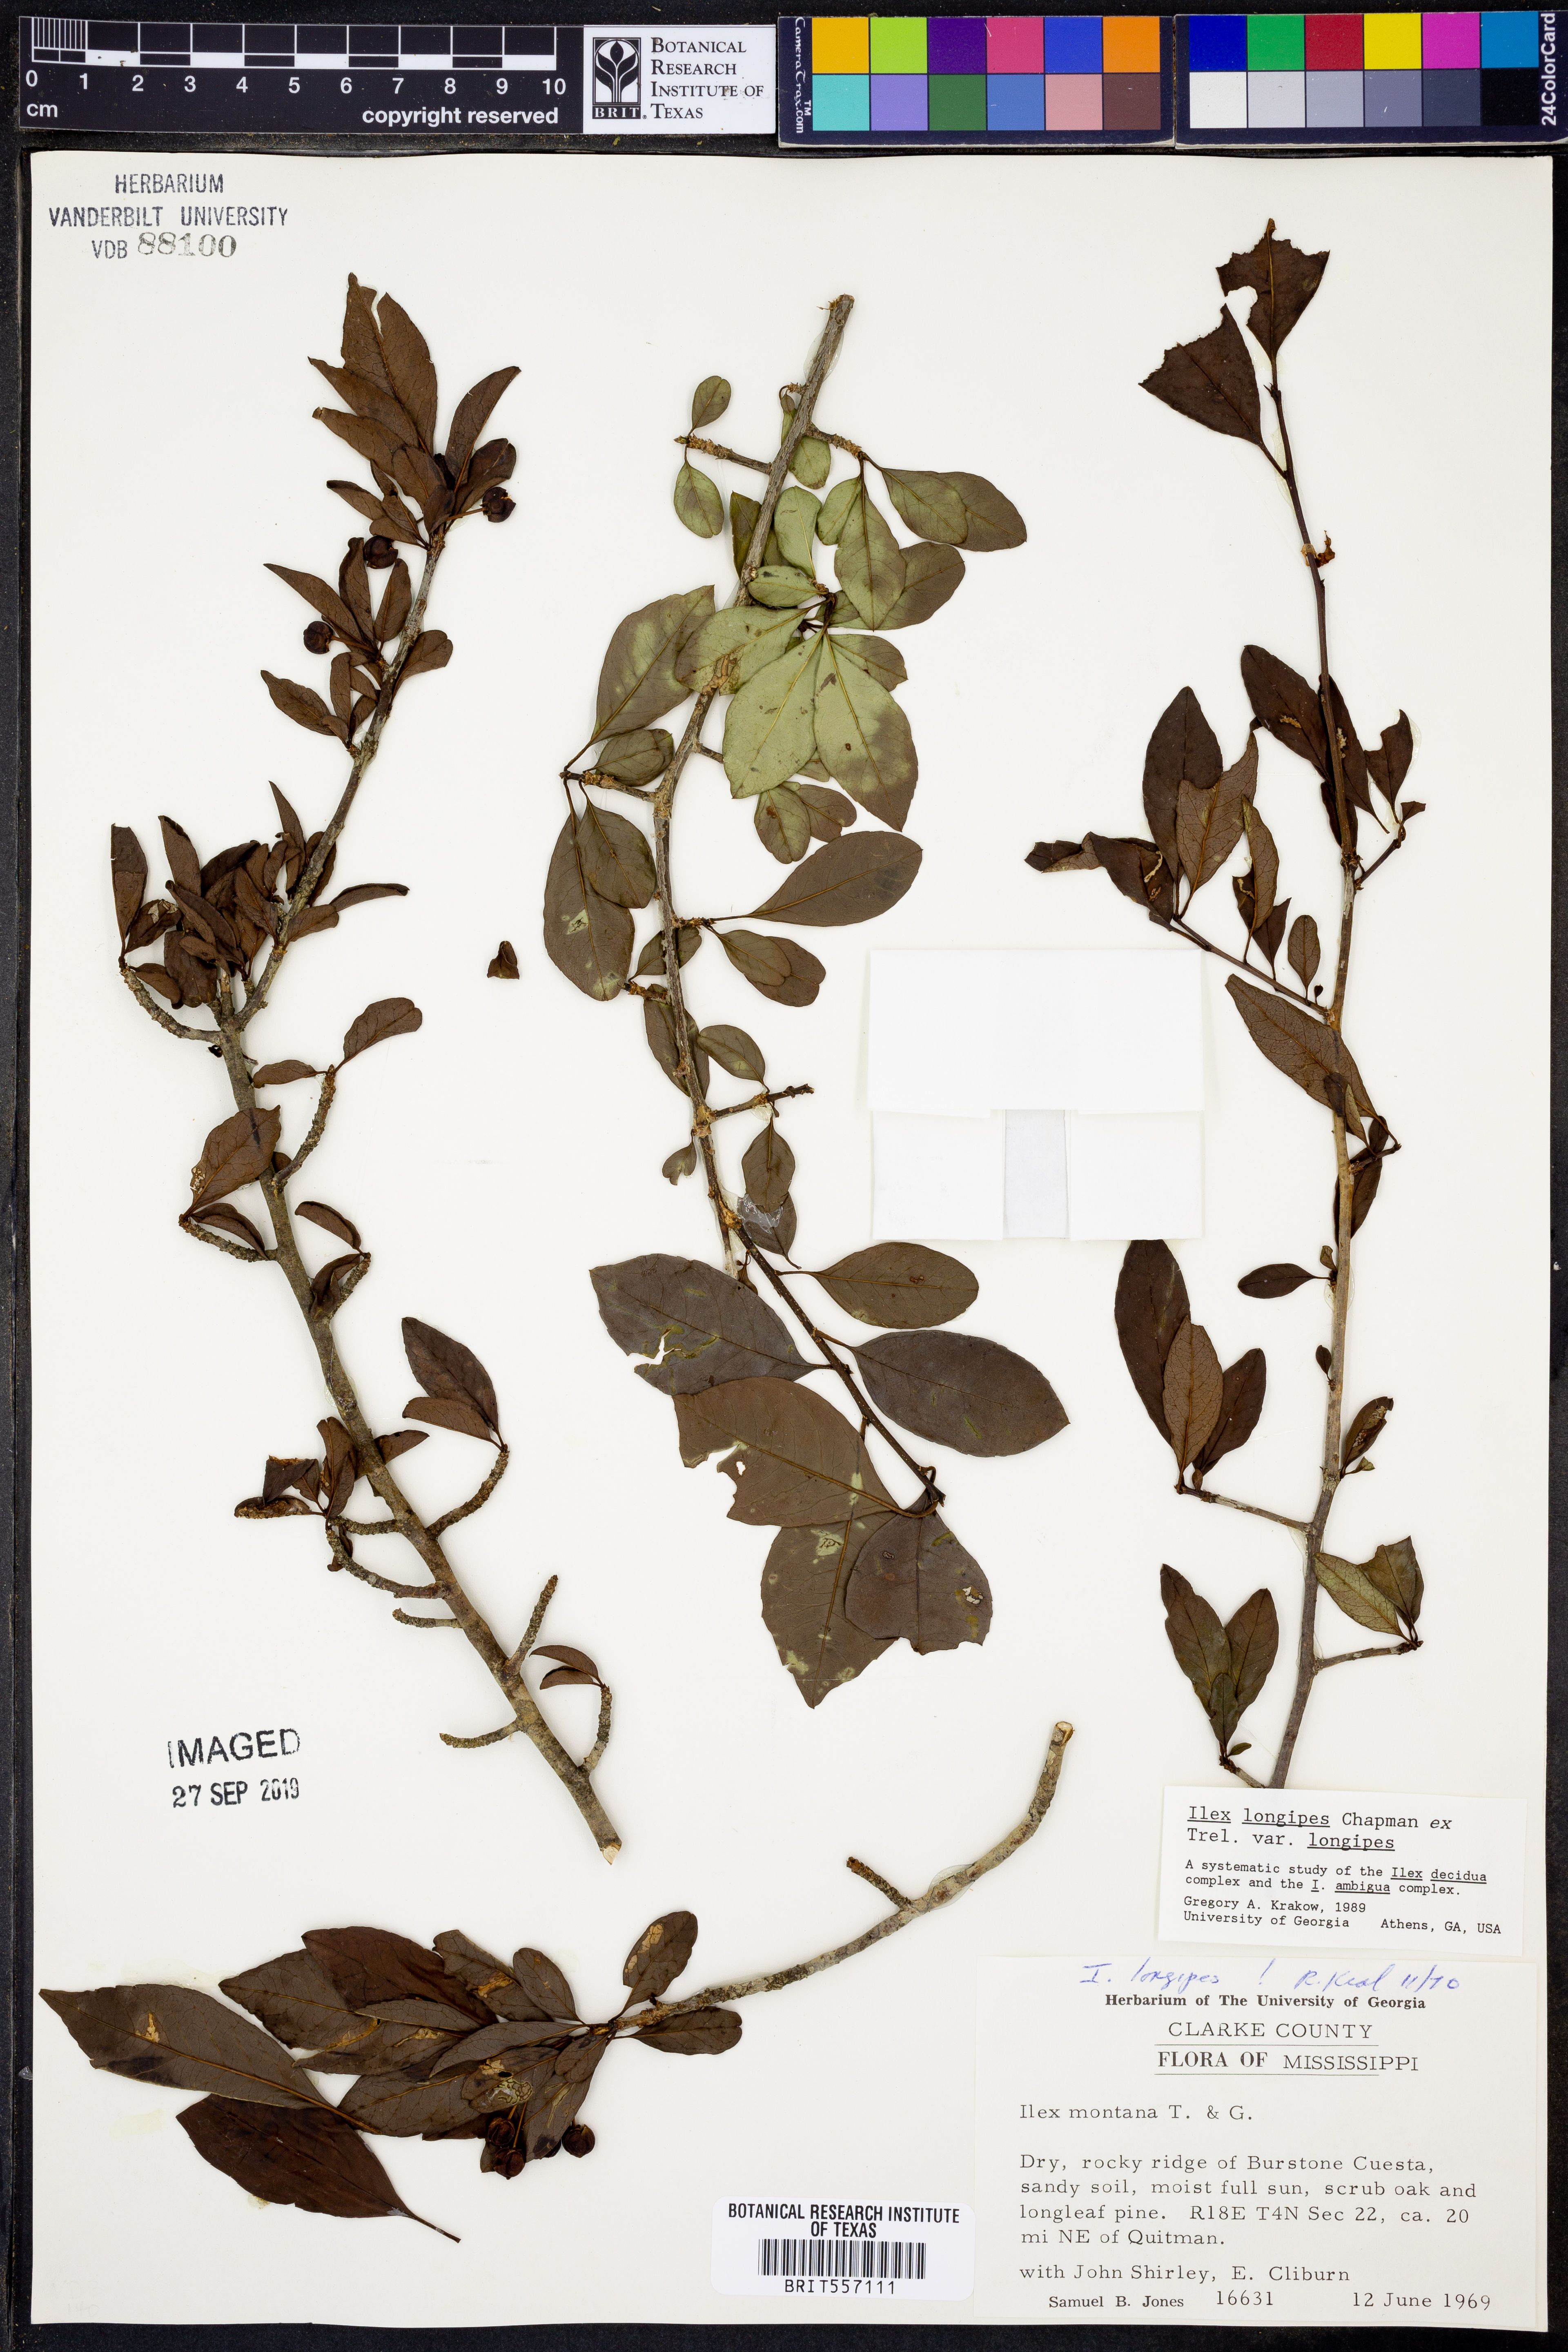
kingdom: Plantae
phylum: Tracheophyta
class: Magnoliopsida
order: Aquifoliales
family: Aquifoliaceae
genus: Ilex
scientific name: Ilex longipes
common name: Georgia holly
